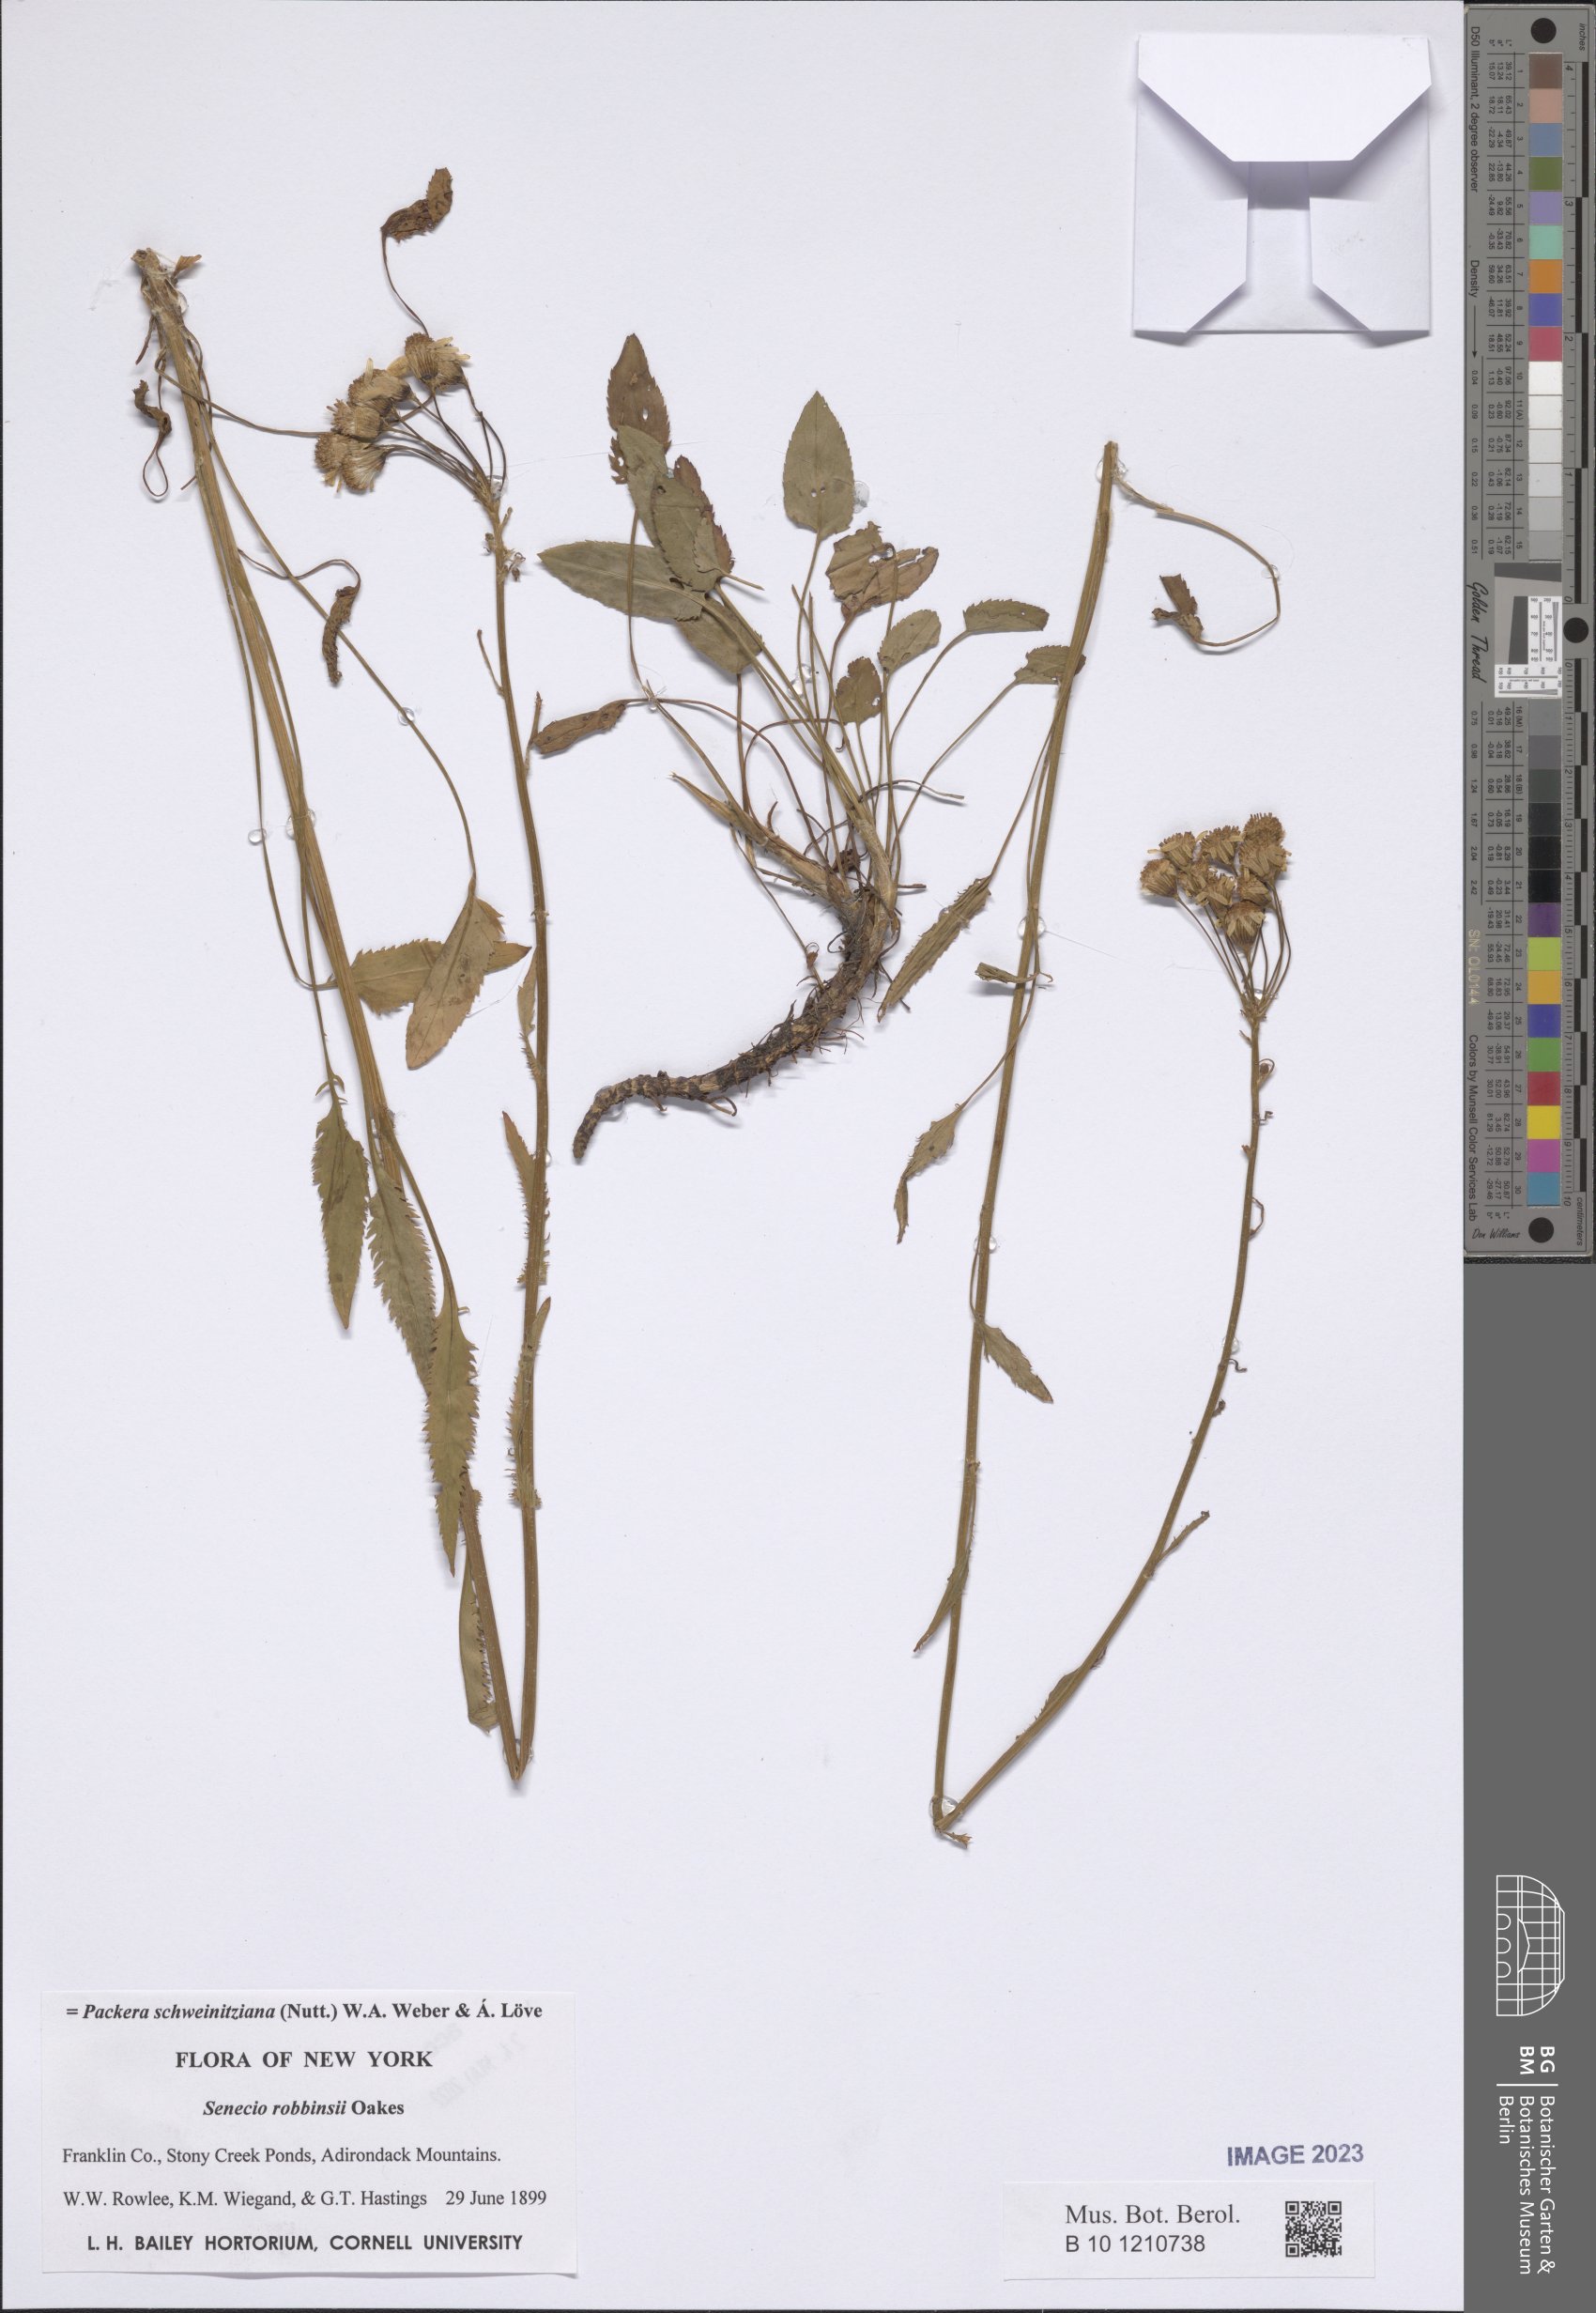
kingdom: Plantae
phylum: Tracheophyta
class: Magnoliopsida
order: Asterales
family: Asteraceae
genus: Packera
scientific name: Packera schweinitziana
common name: Schweinitz's ragwort
